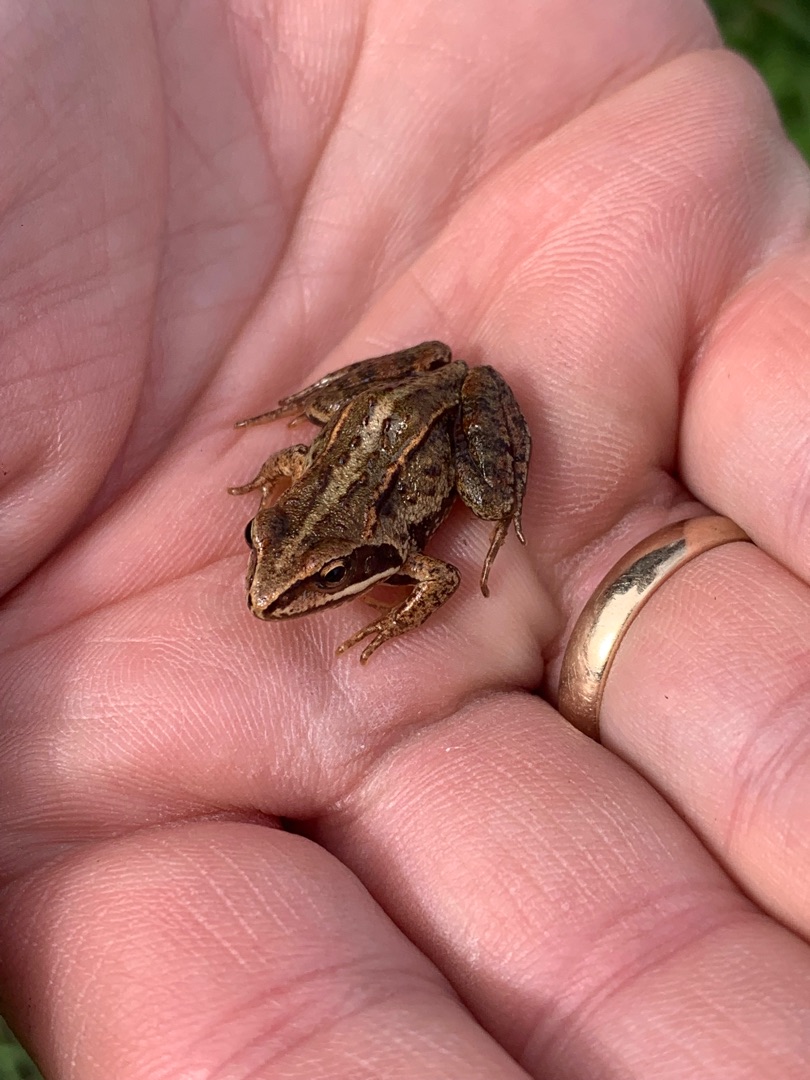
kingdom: Animalia
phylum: Chordata
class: Amphibia
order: Anura
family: Ranidae
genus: Rana
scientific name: Rana arvalis
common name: Spidssnudet frø
